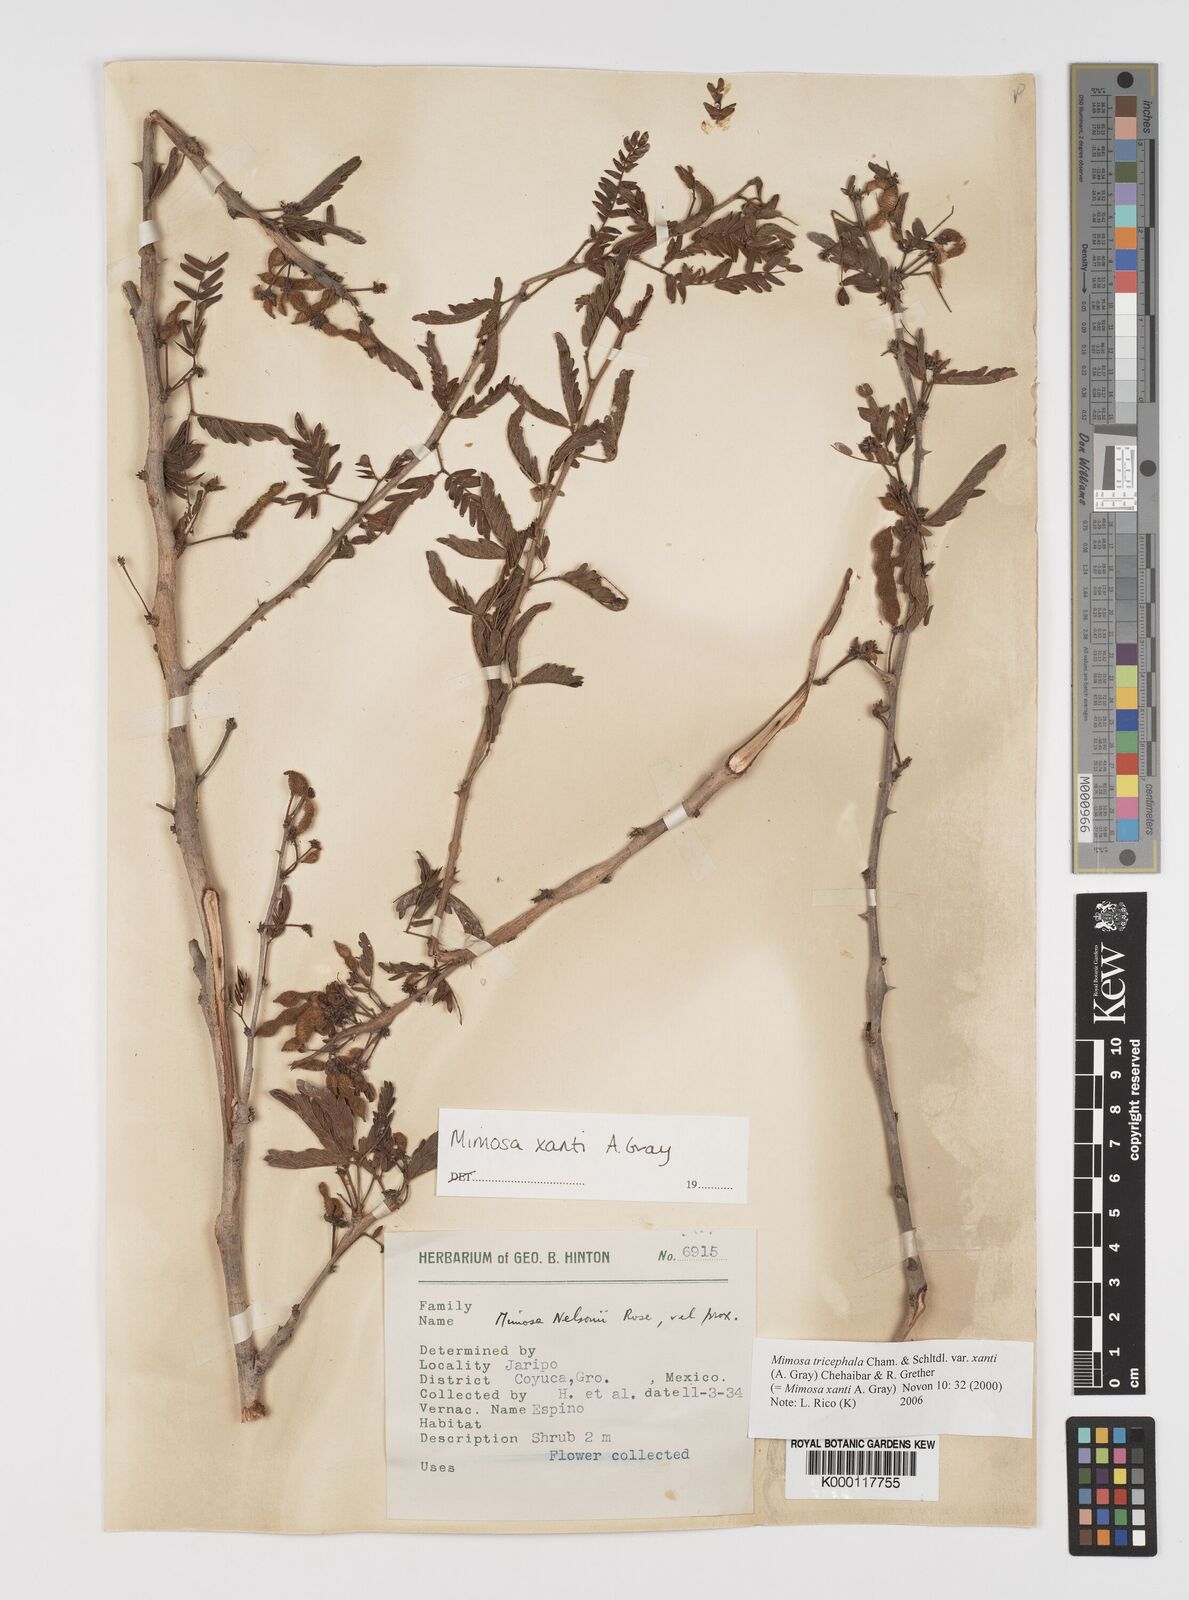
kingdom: Plantae
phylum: Tracheophyta
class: Magnoliopsida
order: Fabales
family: Fabaceae
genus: Mimosa
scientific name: Mimosa tricephala
